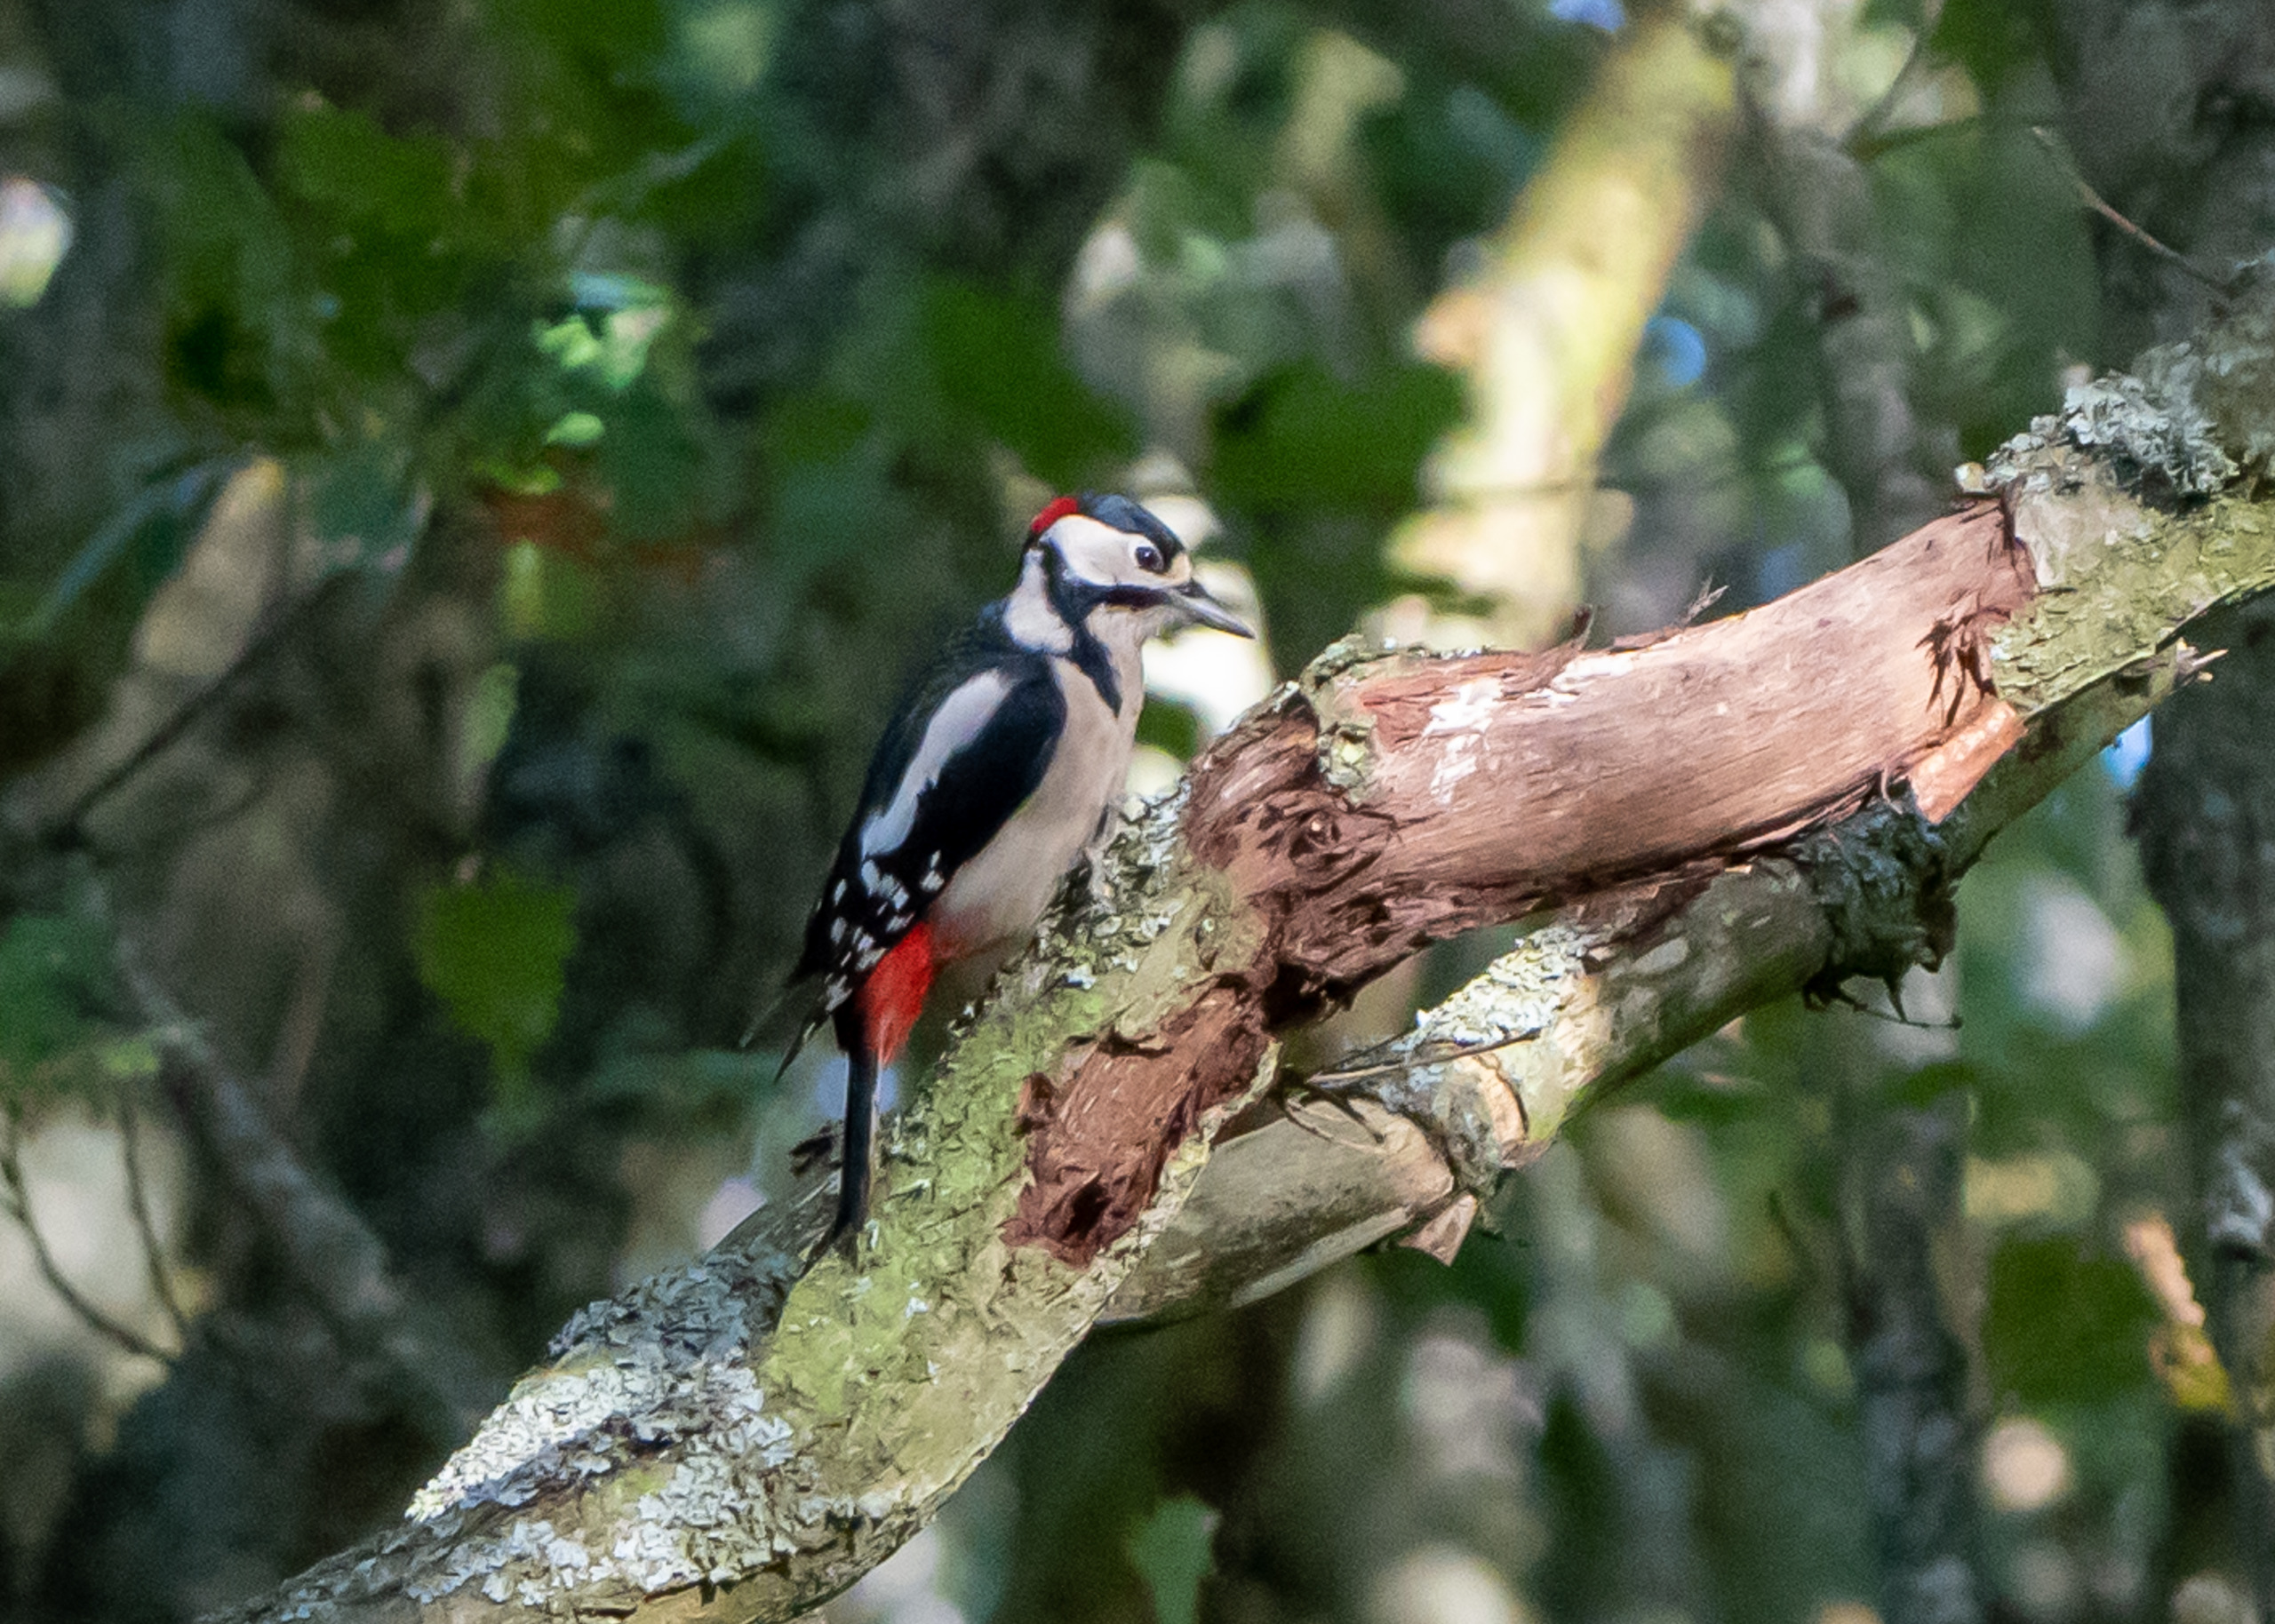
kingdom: Animalia
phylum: Chordata
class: Aves
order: Piciformes
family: Picidae
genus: Dendrocopos
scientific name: Dendrocopos major
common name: Stor flagspætte
